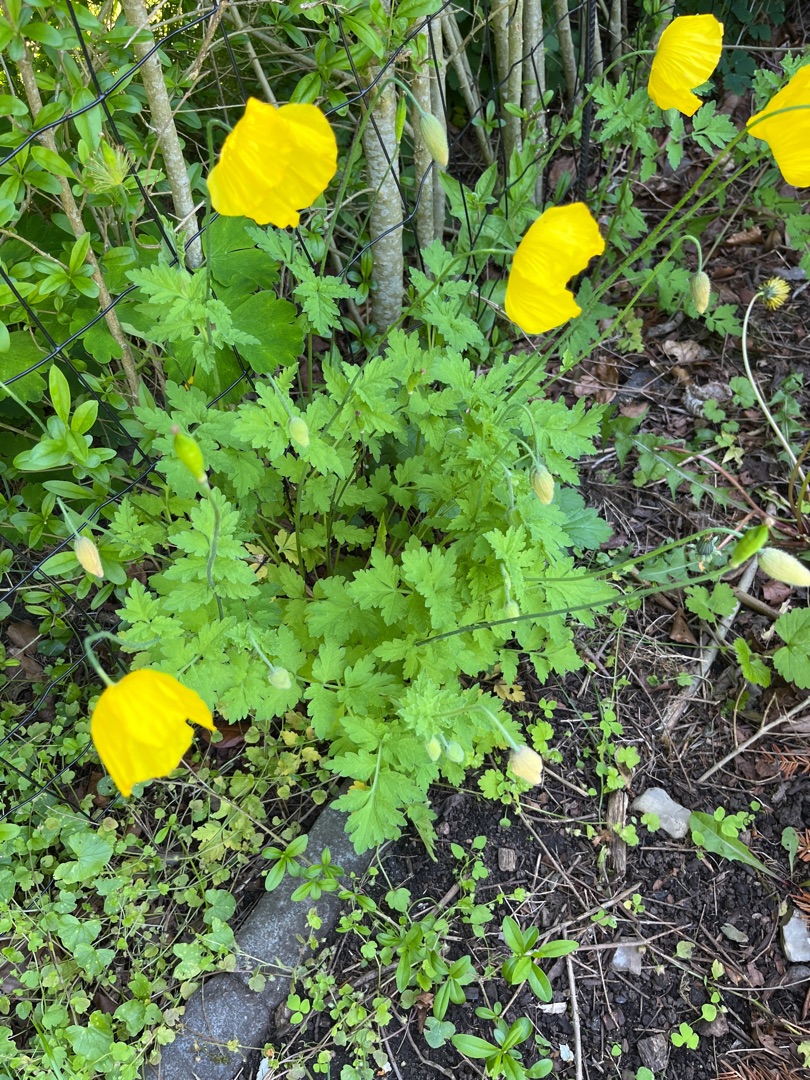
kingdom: Plantae
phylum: Tracheophyta
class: Magnoliopsida
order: Ranunculales
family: Papaveraceae
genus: Papaver
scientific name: Papaver cambricum
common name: Skov-valmue
